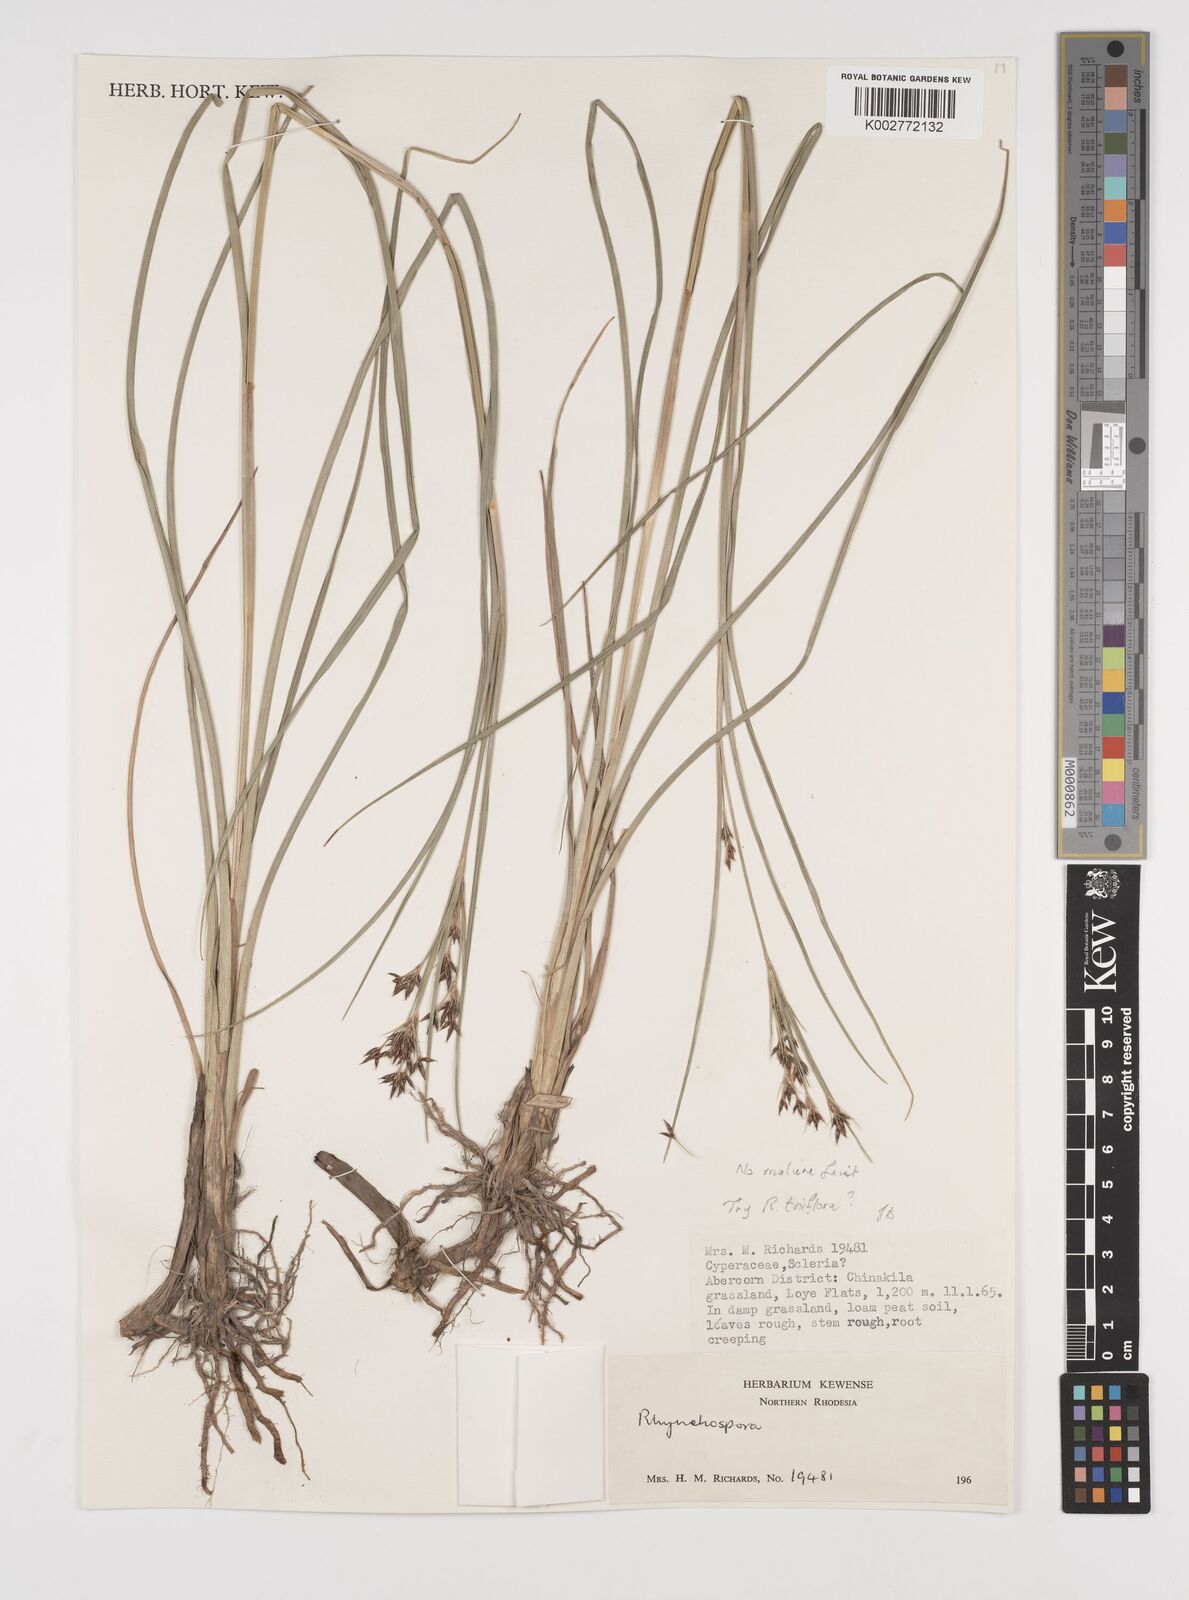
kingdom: Plantae
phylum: Tracheophyta
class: Liliopsida
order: Poales
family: Cyperaceae
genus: Rhynchospora
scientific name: Rhynchospora
